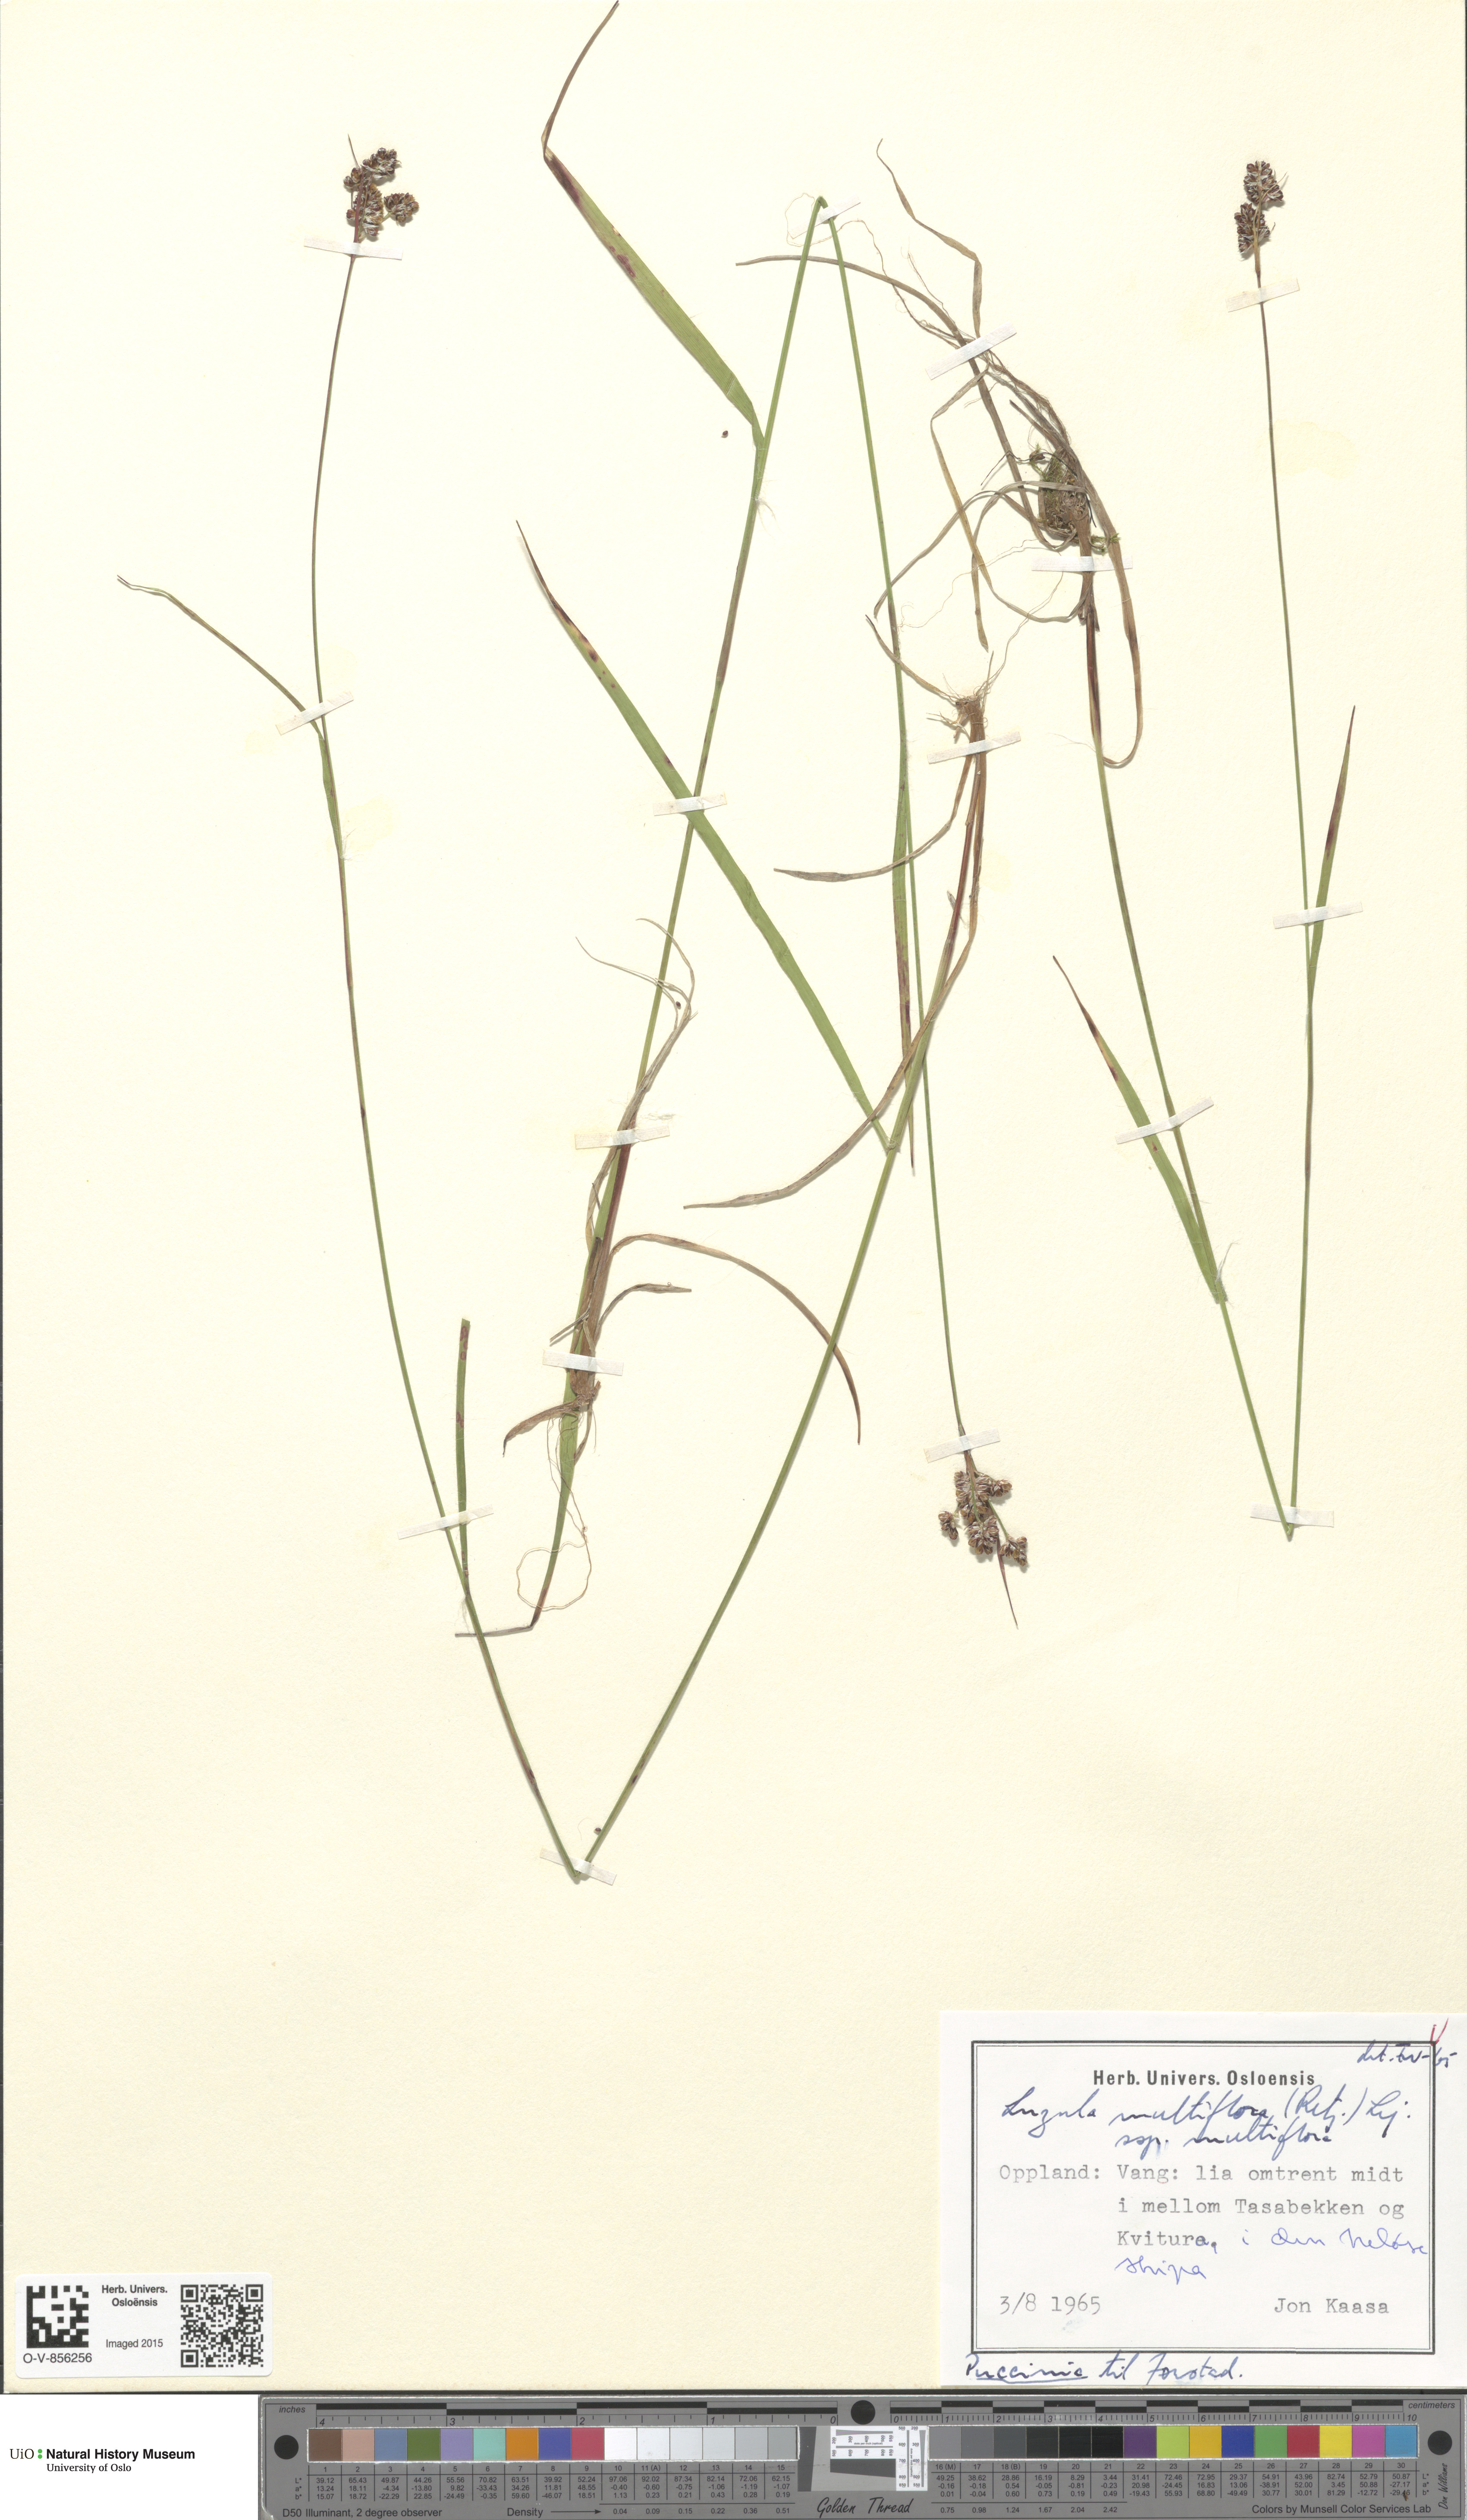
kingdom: Plantae
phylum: Tracheophyta
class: Liliopsida
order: Poales
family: Juncaceae
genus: Luzula
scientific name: Luzula multiflora
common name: Heath wood-rush
